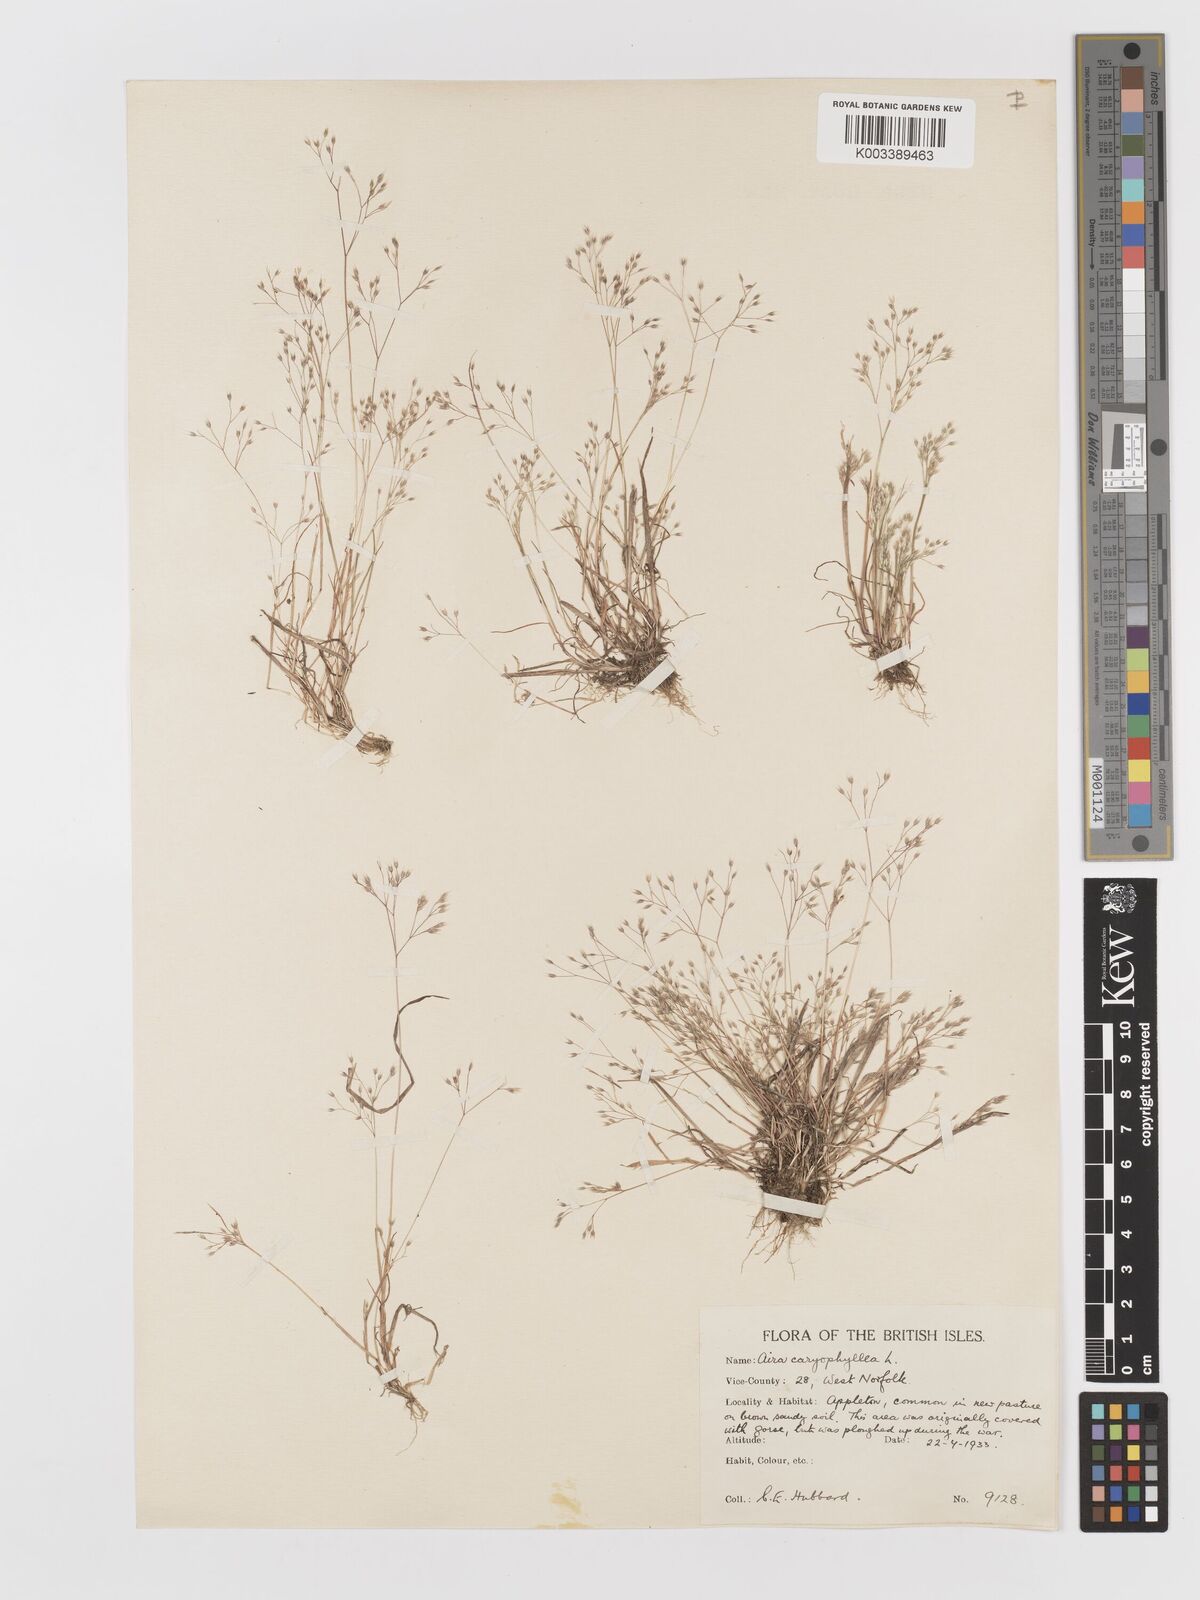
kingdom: Plantae
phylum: Tracheophyta
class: Liliopsida
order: Poales
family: Poaceae
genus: Aira
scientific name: Aira caryophyllea
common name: Silver hairgrass
